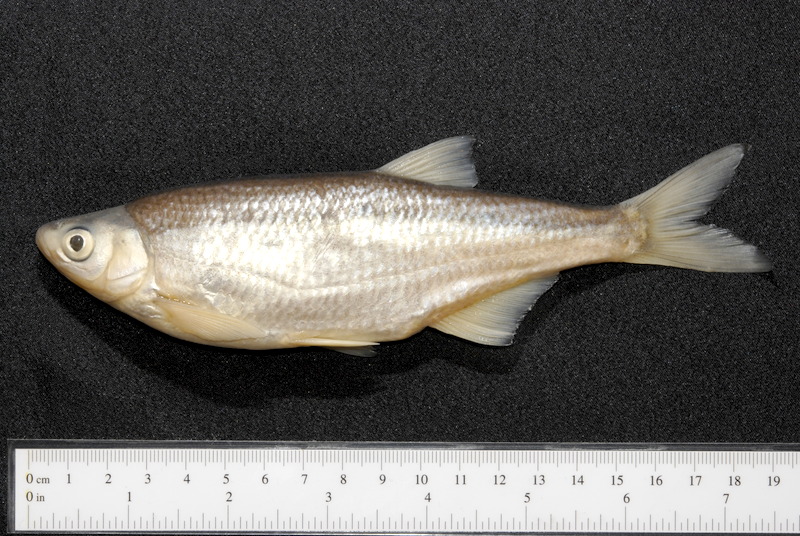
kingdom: Animalia
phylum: Chordata
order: Cypriniformes
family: Cyprinidae
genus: Alburnus
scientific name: Alburnus alburnus
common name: Bleak
